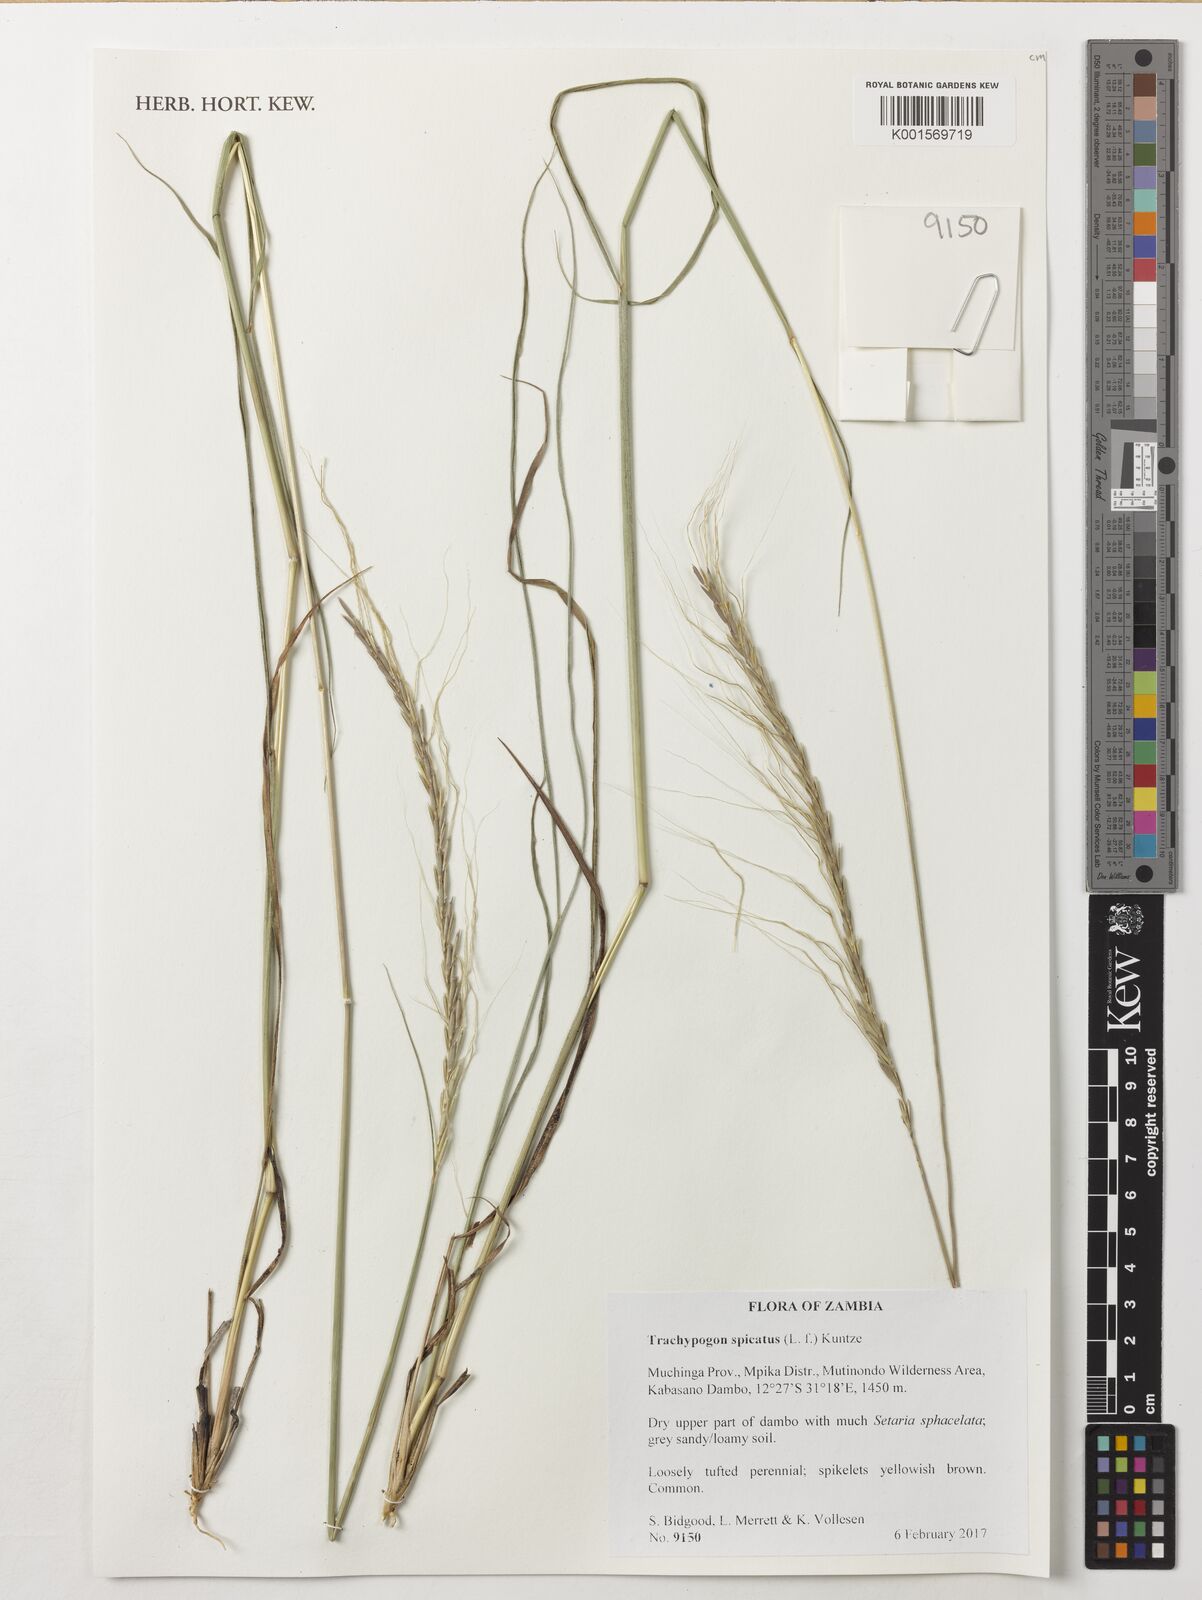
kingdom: Plantae
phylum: Tracheophyta
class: Liliopsida
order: Poales
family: Poaceae
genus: Trachypogon
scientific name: Trachypogon spicatus
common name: Crinkle-awn
